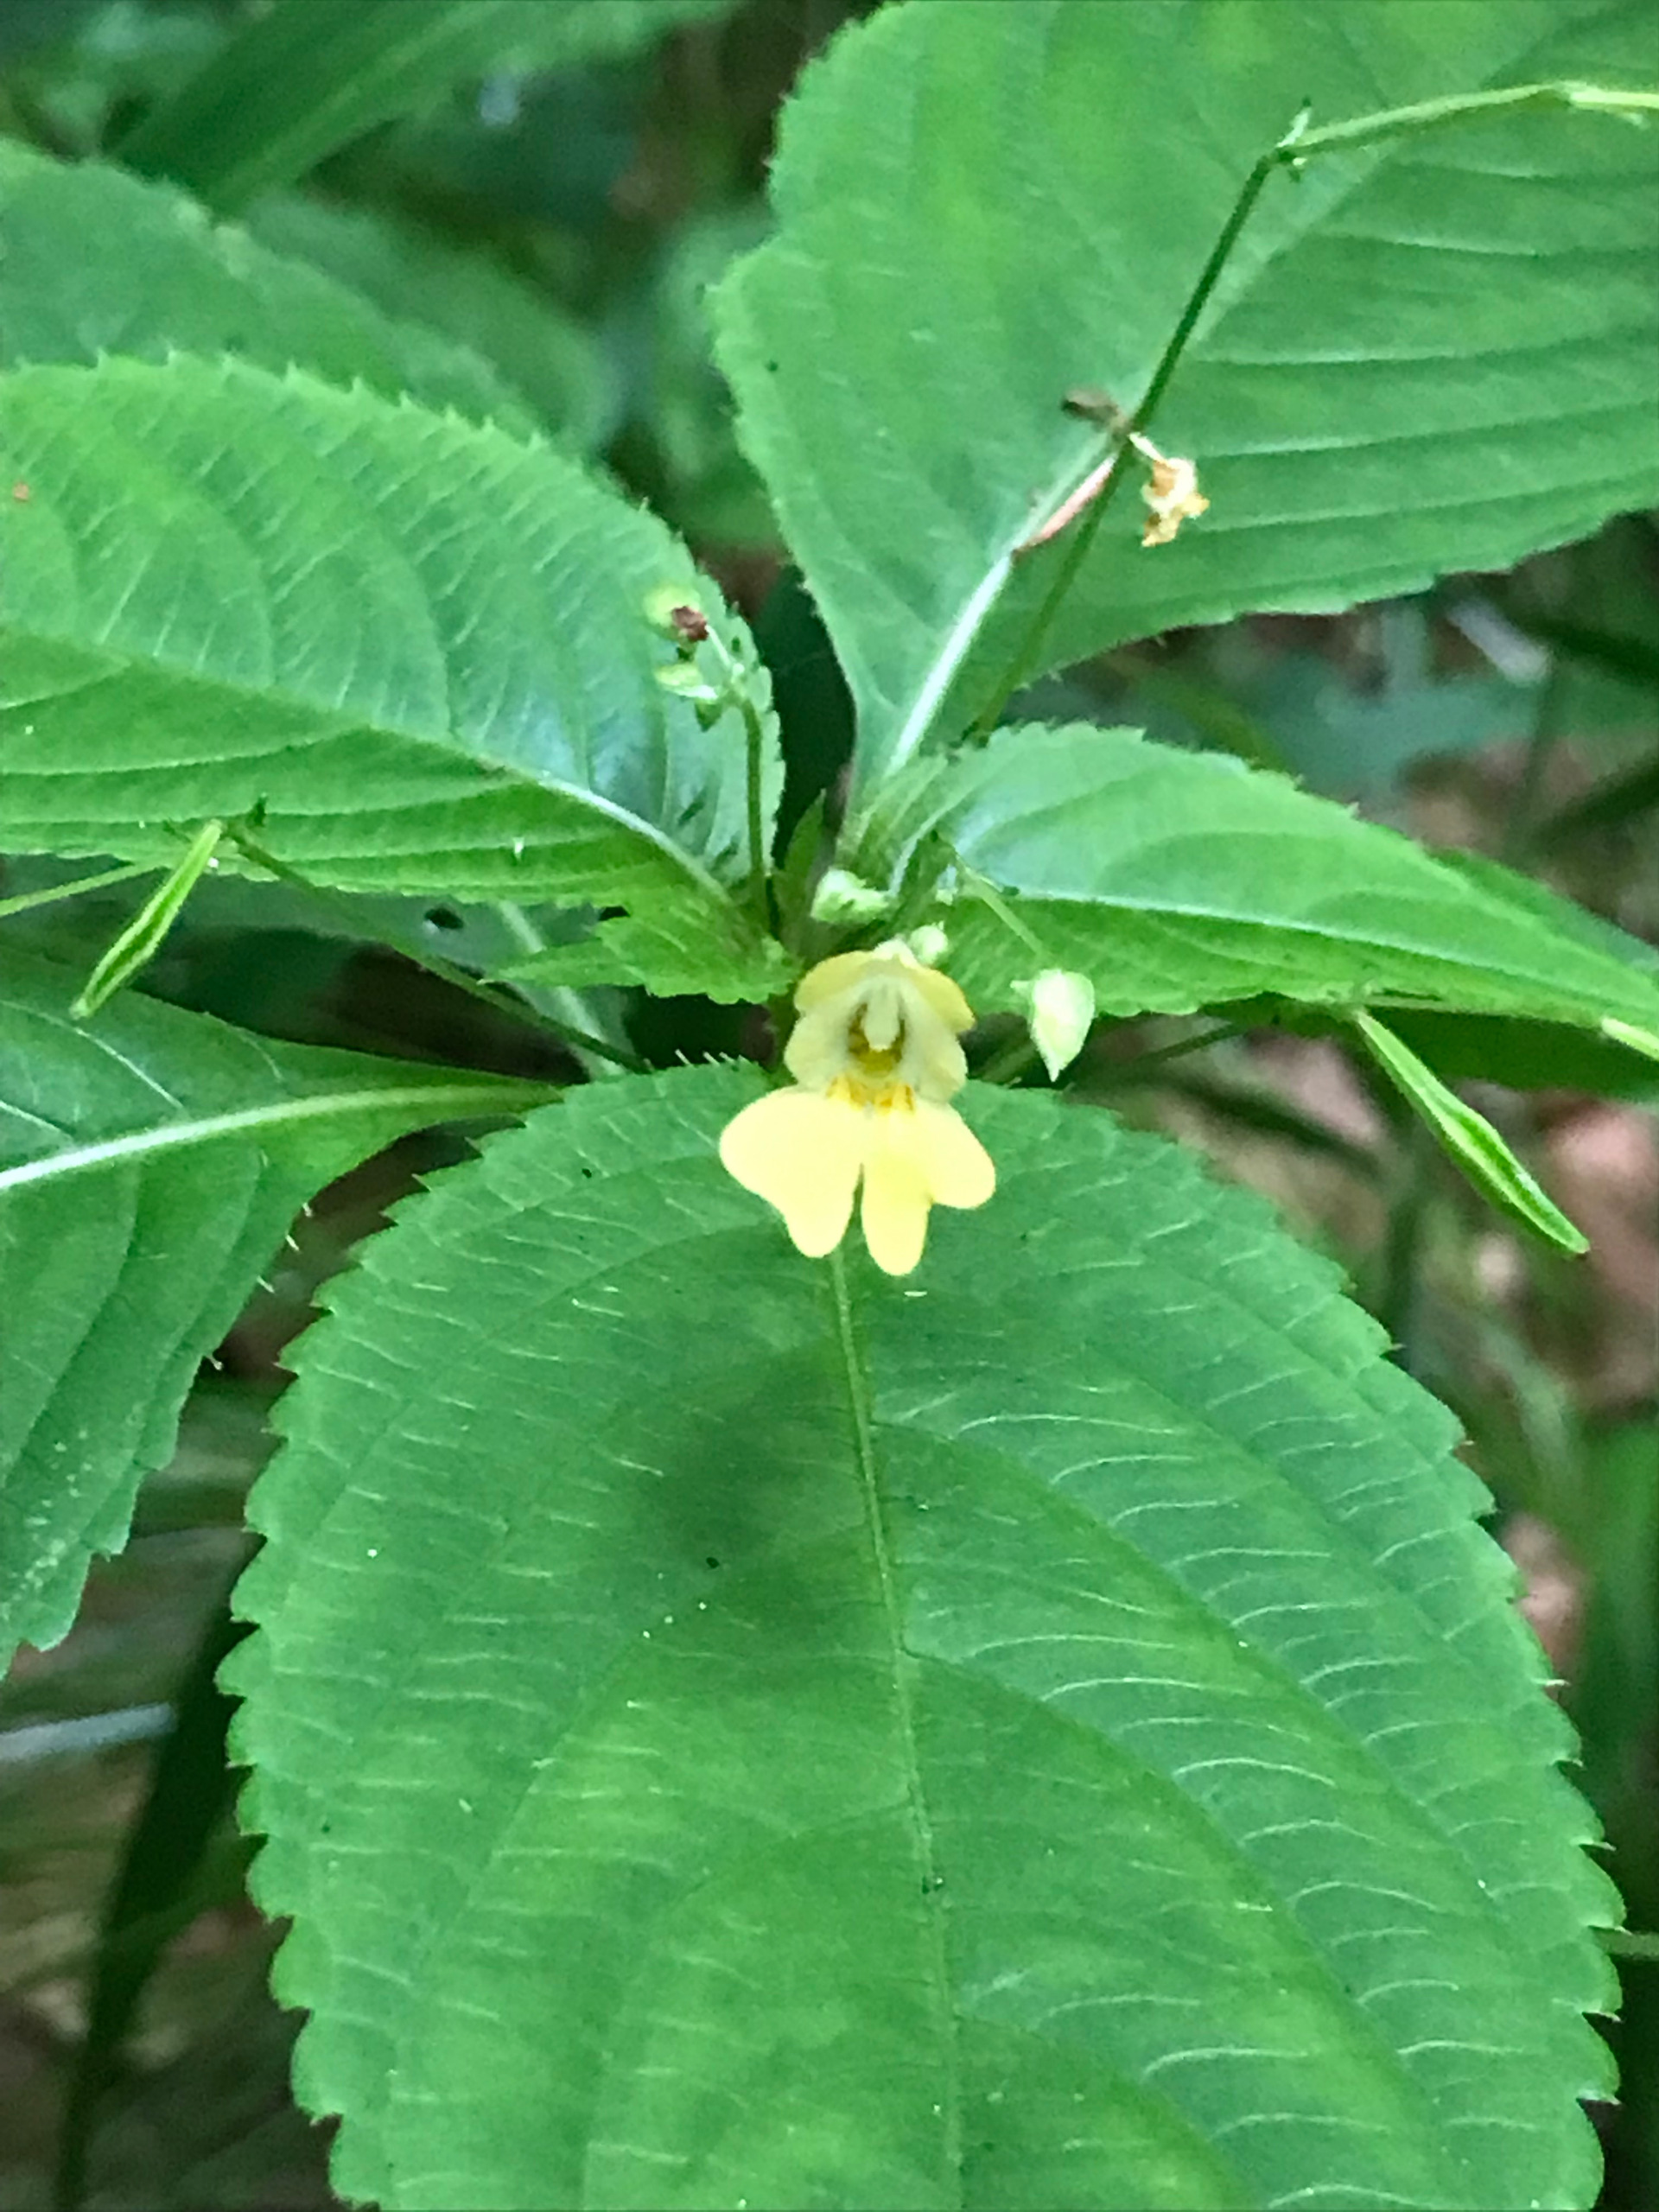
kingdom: Plantae
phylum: Tracheophyta
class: Magnoliopsida
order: Ericales
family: Balsaminaceae
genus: Impatiens
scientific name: Impatiens parviflora
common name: Småblomstret balsamin
